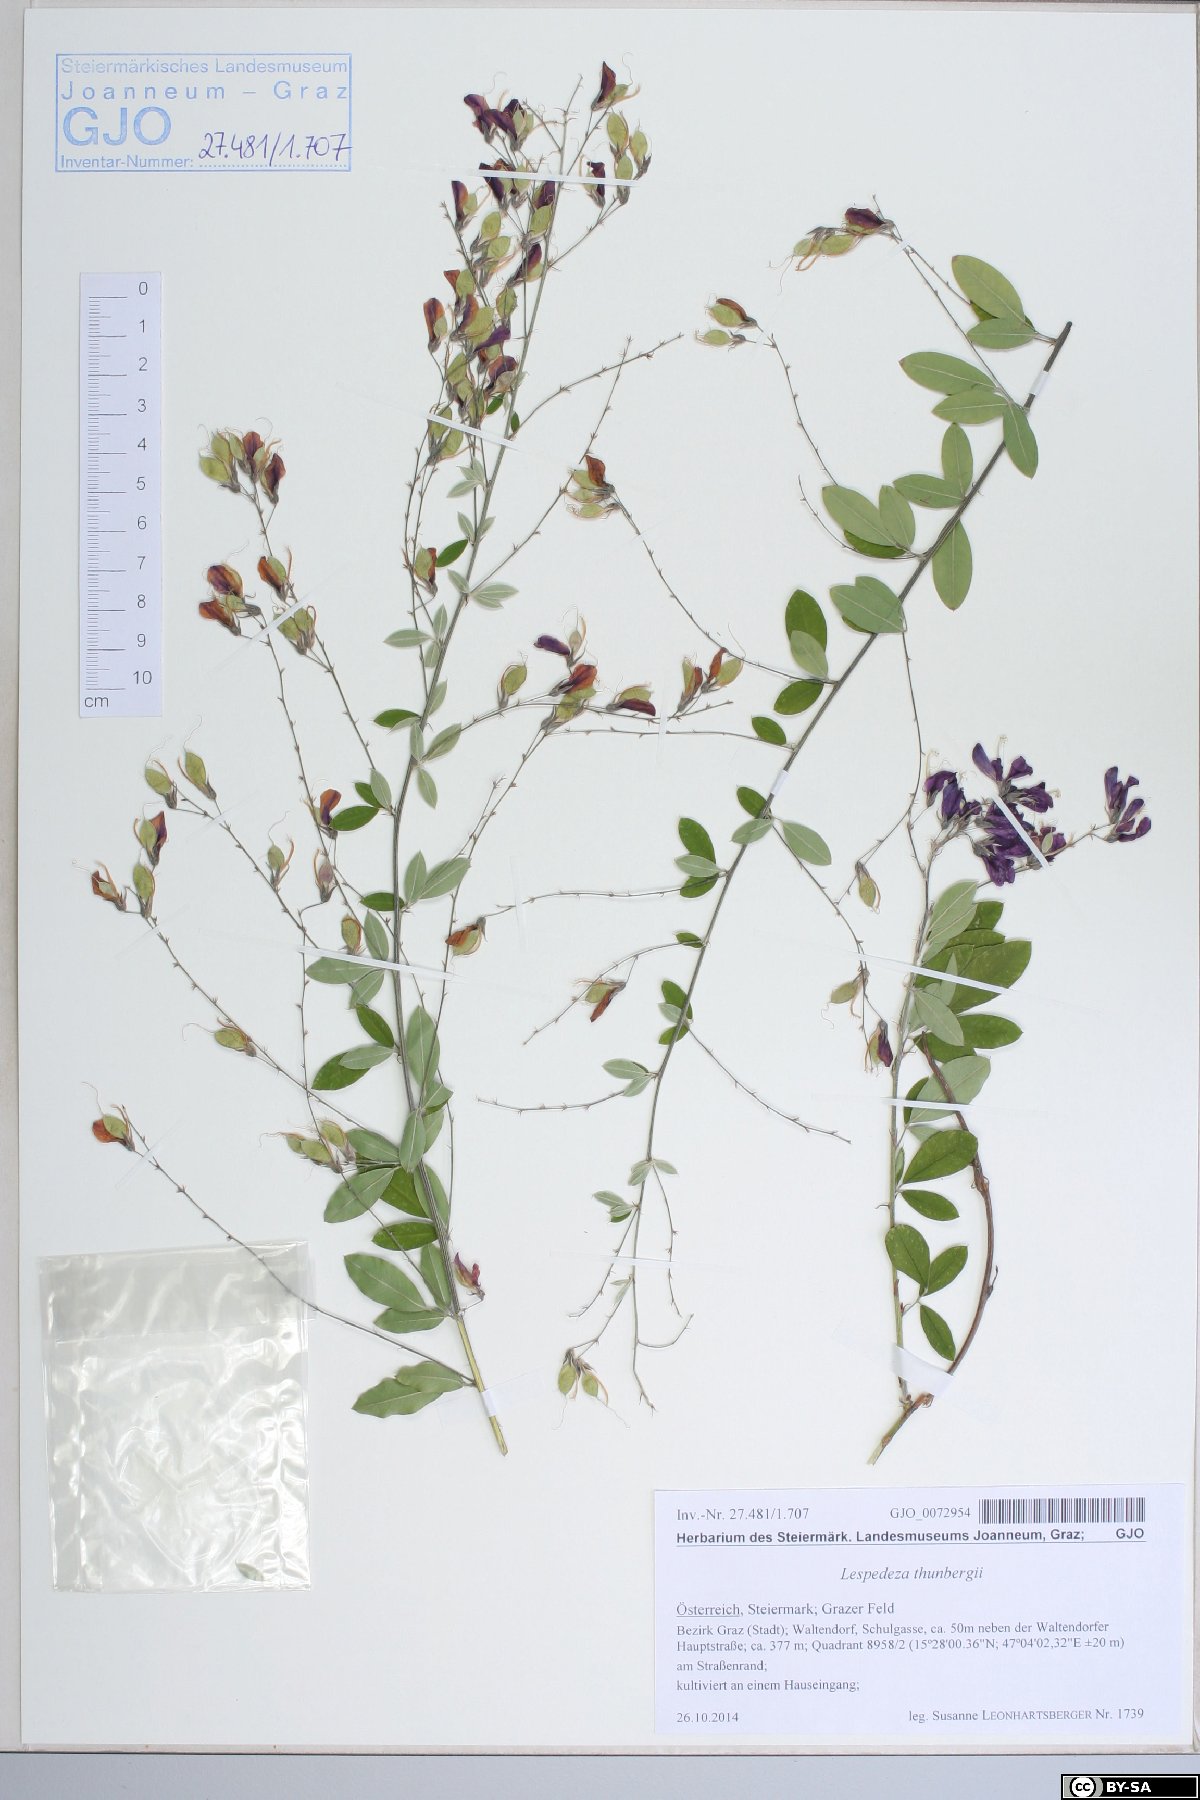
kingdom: Plantae
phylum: Tracheophyta
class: Magnoliopsida
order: Fabales
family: Fabaceae
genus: Lespedeza
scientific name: Lespedeza thunbergii
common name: Thunberg's lespedeza
